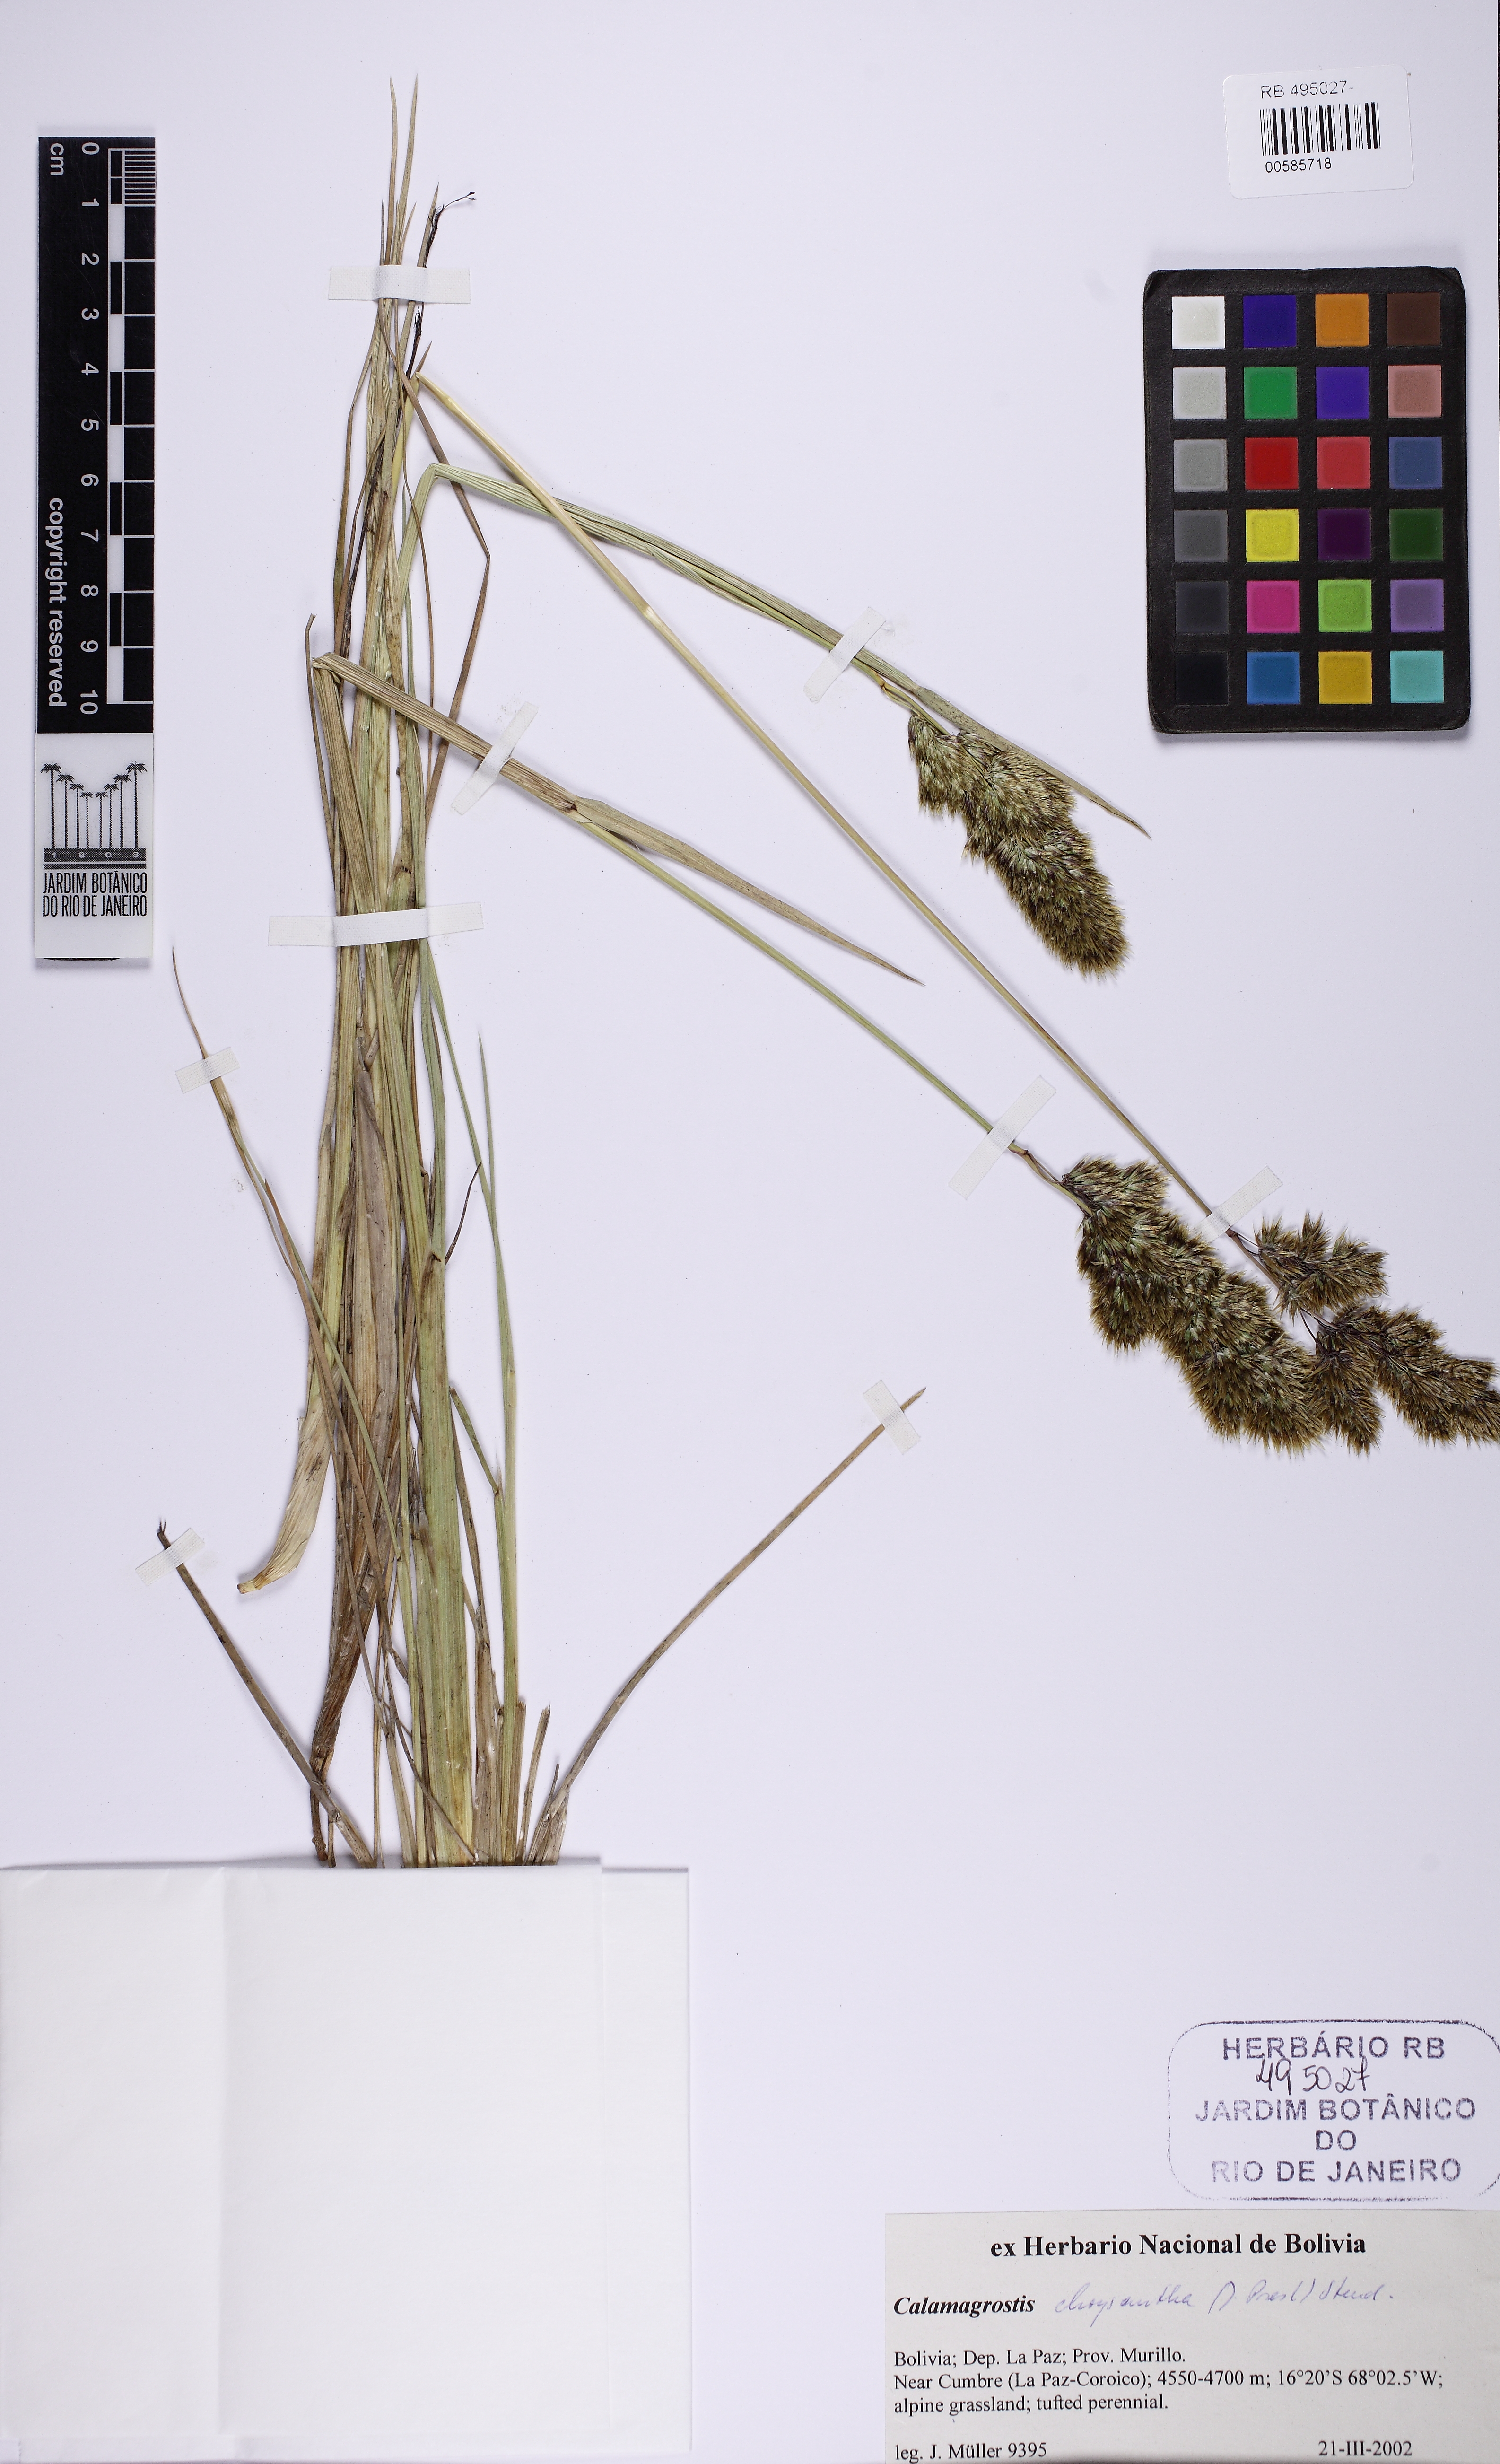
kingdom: Plantae
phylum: Tracheophyta
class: Liliopsida
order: Poales
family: Poaceae
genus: Deschampsia
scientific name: Deschampsia chrysantha
